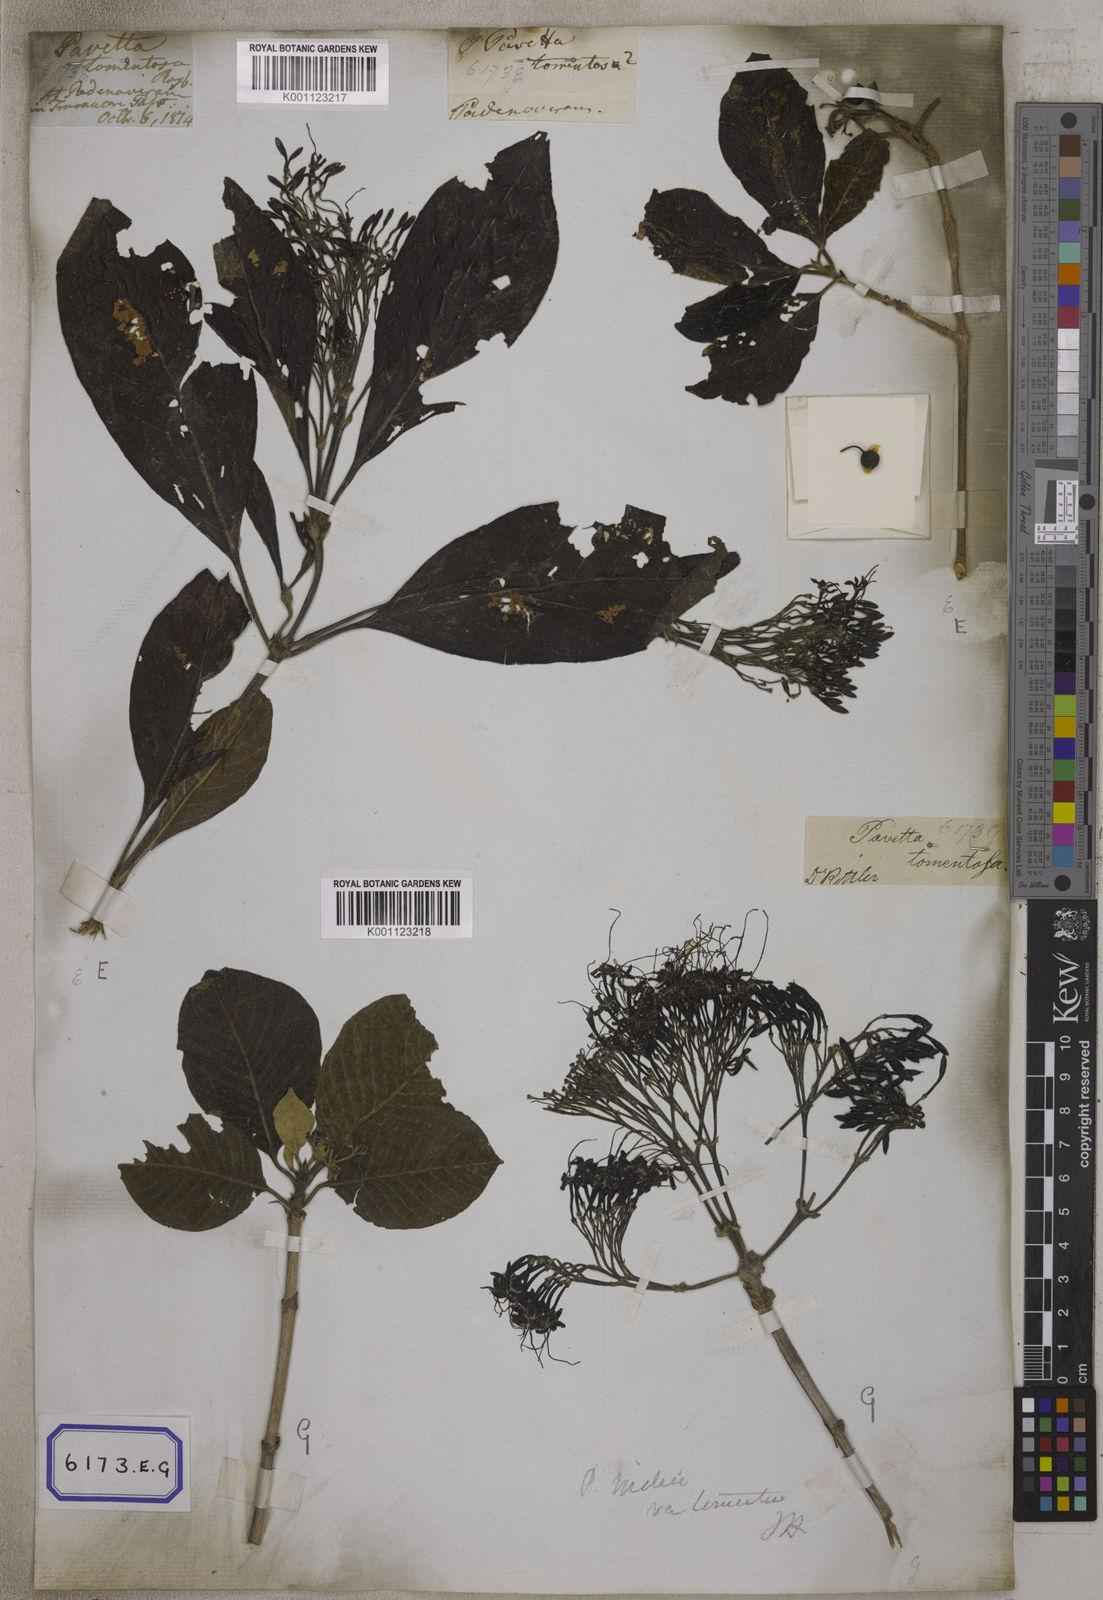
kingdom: Plantae
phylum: Tracheophyta
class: Magnoliopsida
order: Gentianales
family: Rubiaceae
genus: Pavetta
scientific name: Pavetta tomentosa
